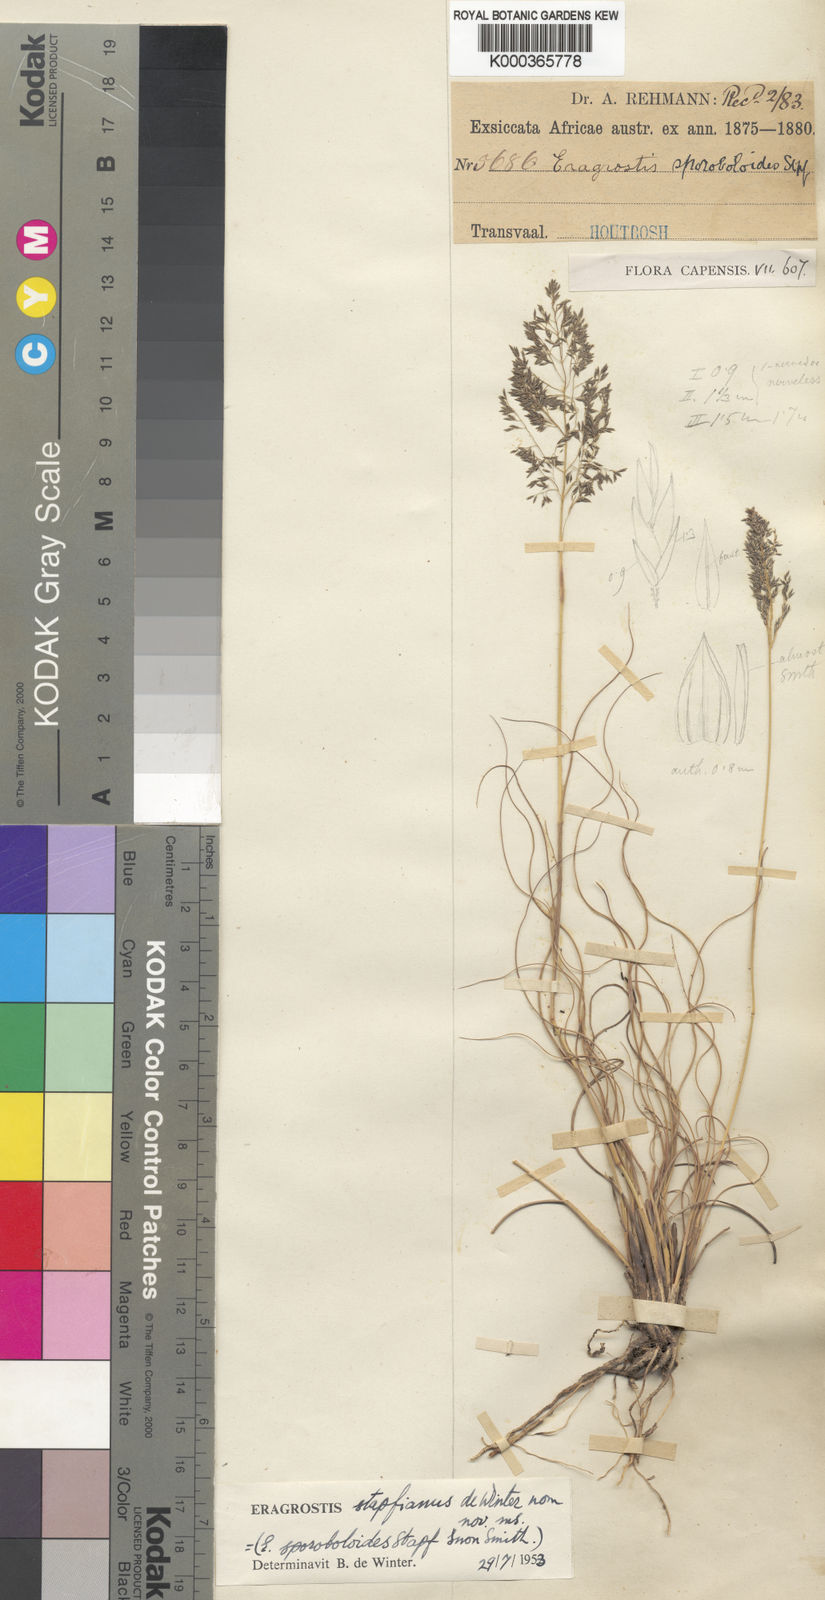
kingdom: Plantae
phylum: Tracheophyta
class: Liliopsida
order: Poales
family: Poaceae
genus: Eragrostis
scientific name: Eragrostis stapfii
